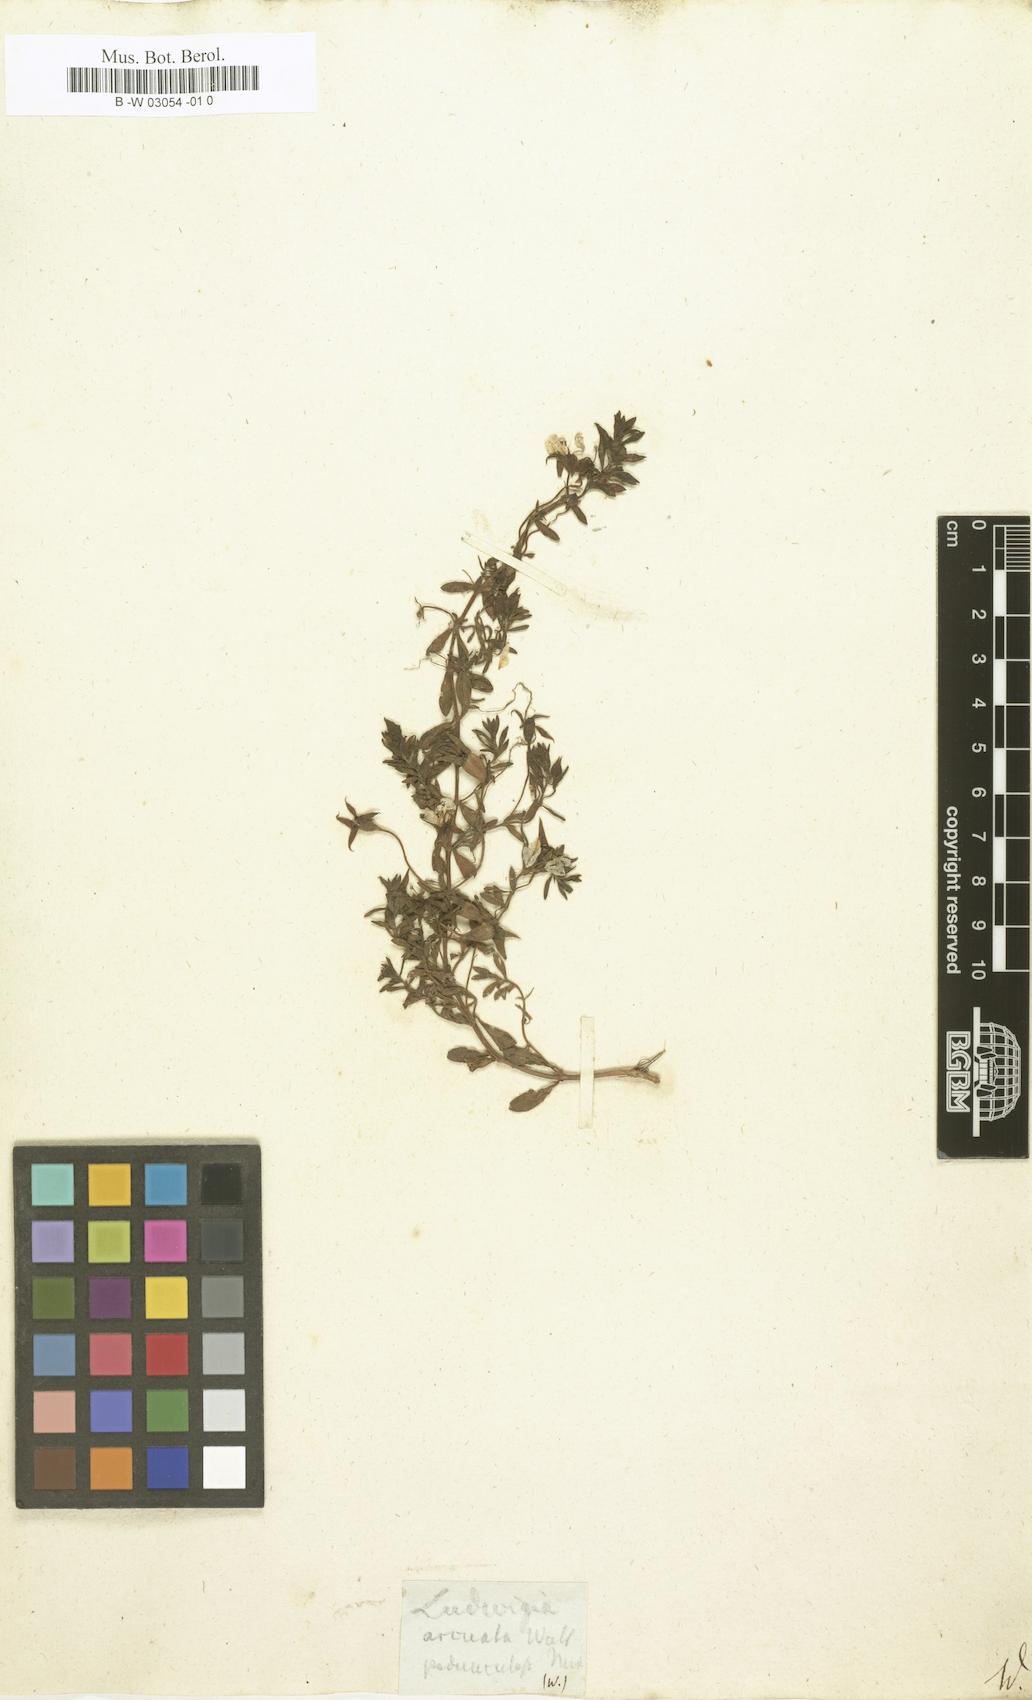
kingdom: Plantae
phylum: Tracheophyta
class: Magnoliopsida
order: Myrtales
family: Onagraceae
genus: Ludwigia
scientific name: Ludwigia arcuata
